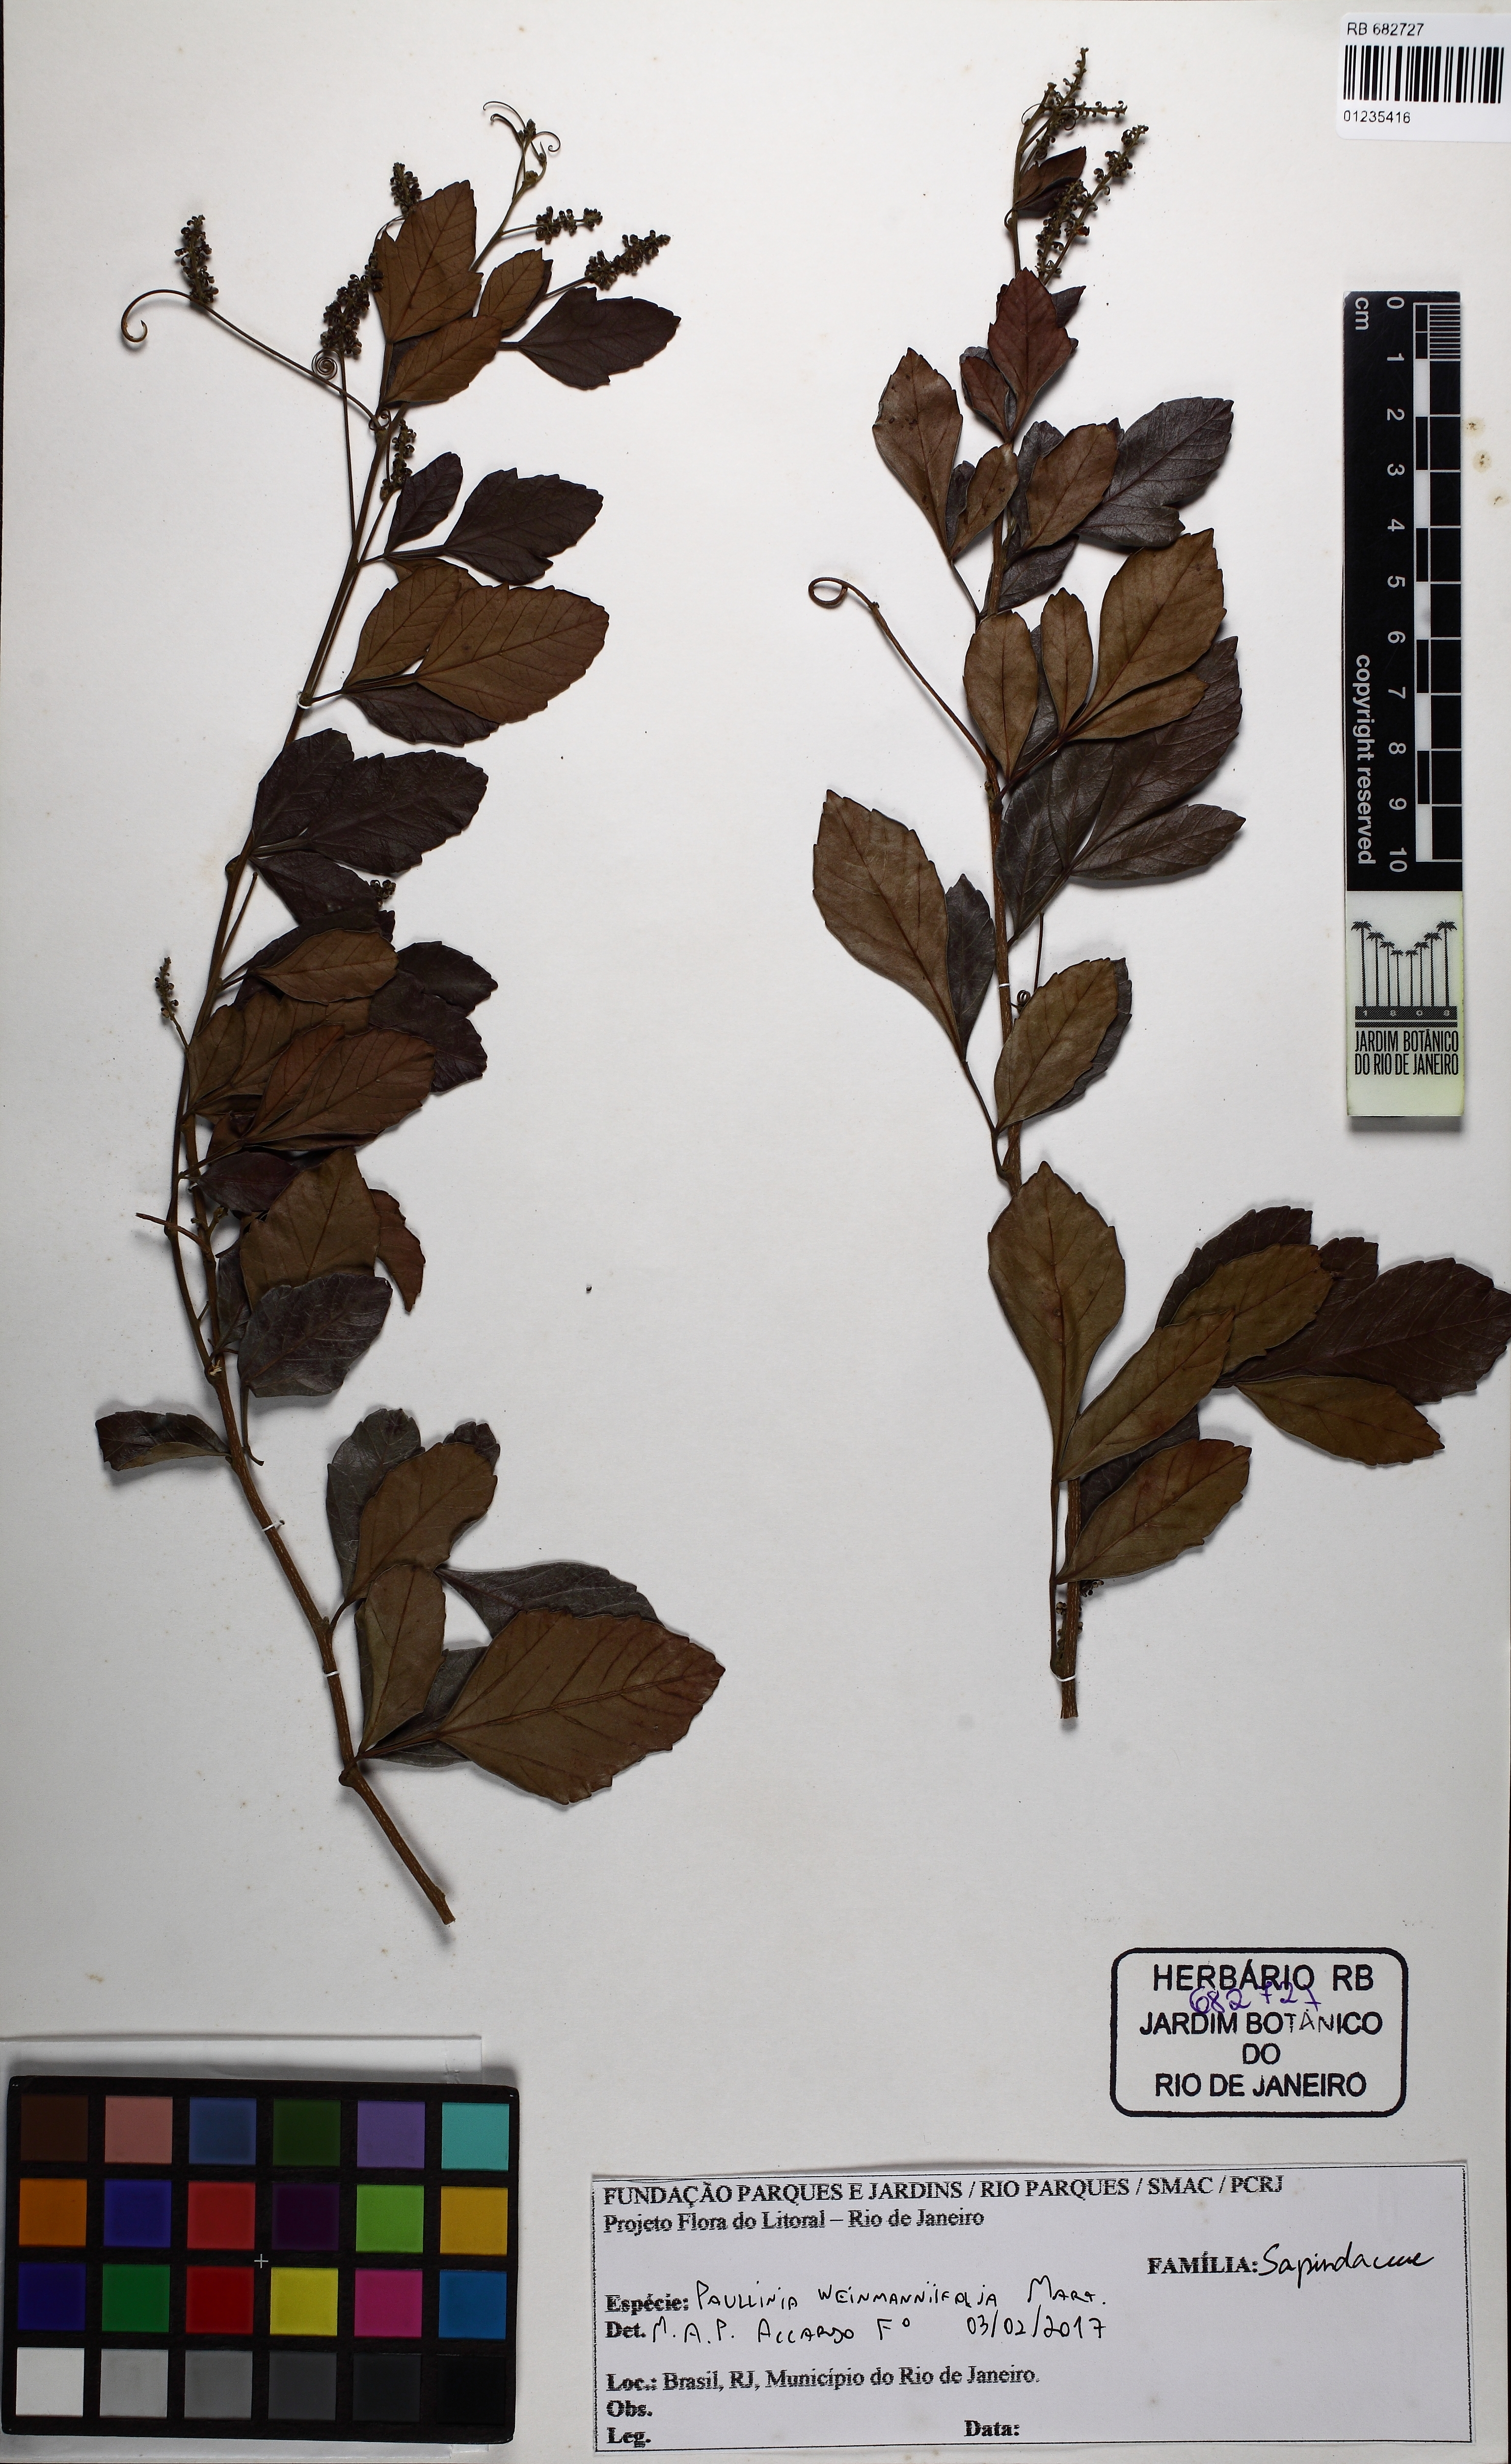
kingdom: Plantae
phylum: Tracheophyta
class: Magnoliopsida
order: Sapindales
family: Sapindaceae
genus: Paullinia
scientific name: Paullinia weinmanniifolia
